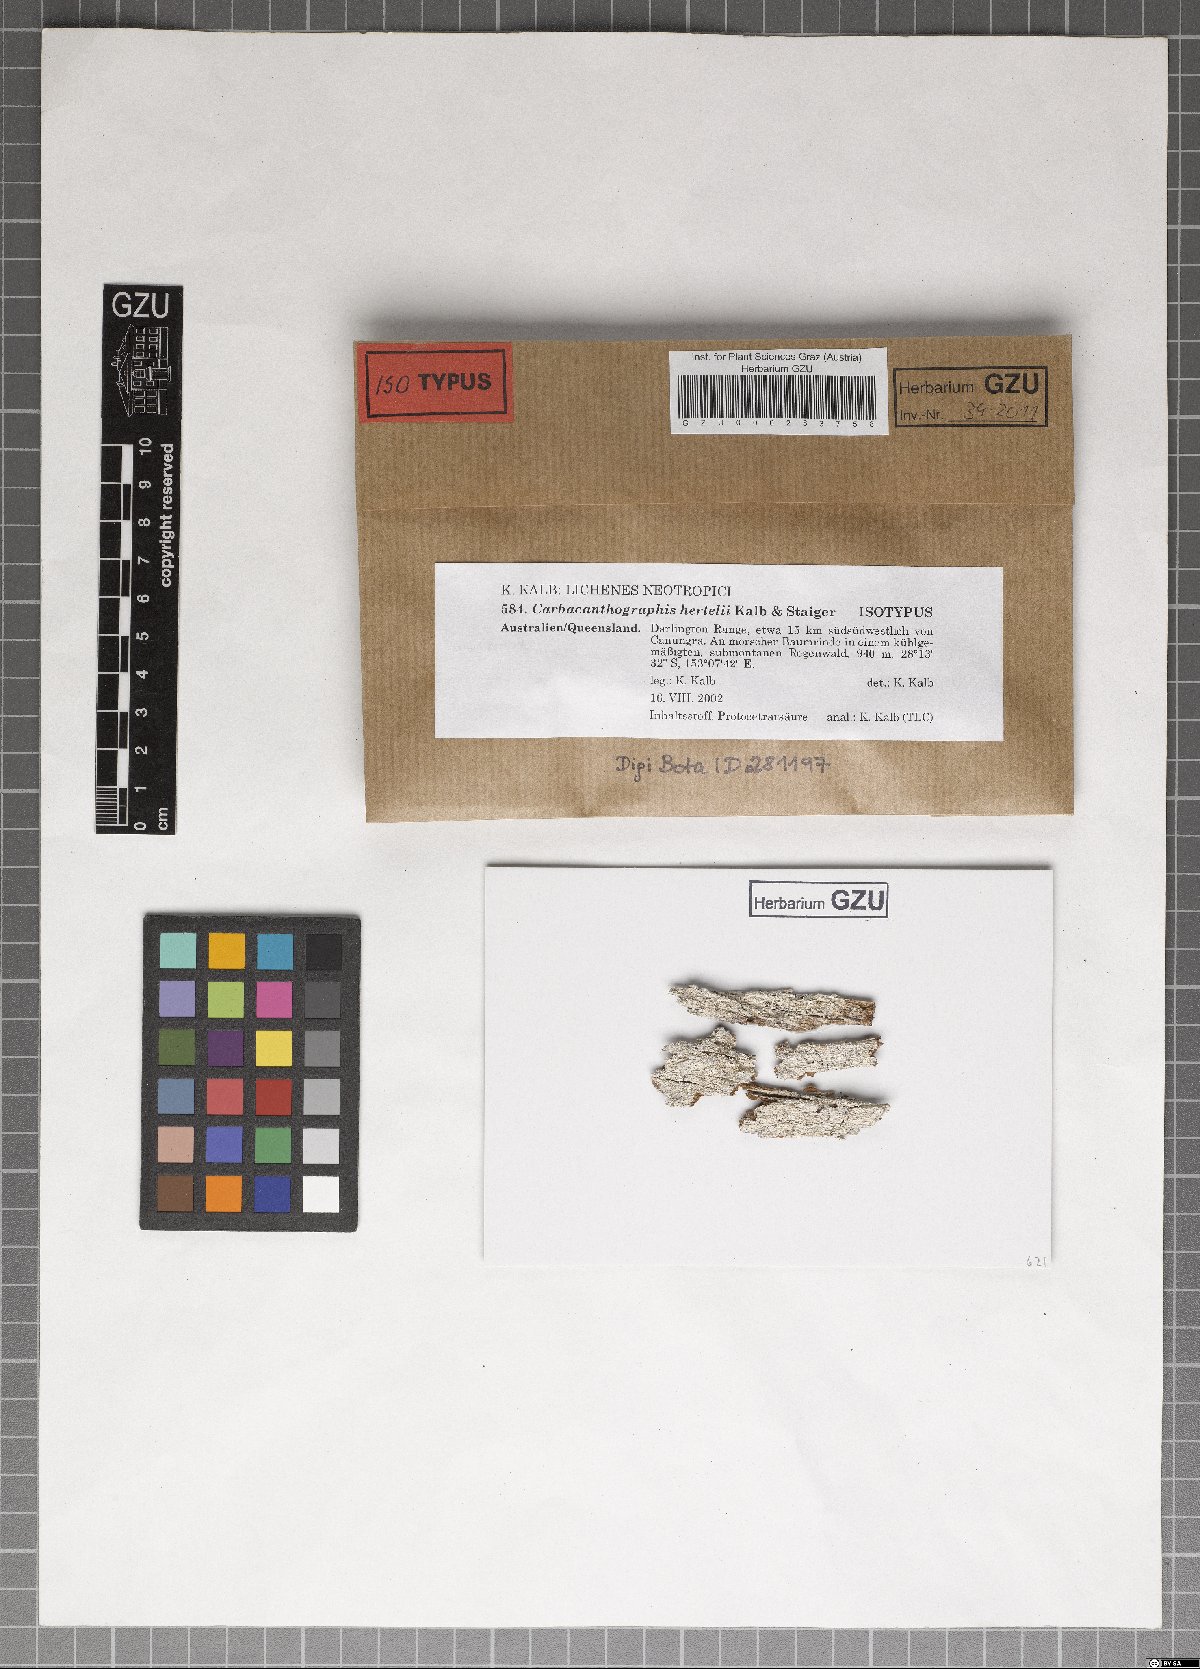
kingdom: Fungi
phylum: Ascomycota
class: Lecanoromycetes
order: Ostropales
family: Graphidaceae
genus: Carbacanthographis
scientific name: Carbacanthographis hertelii
